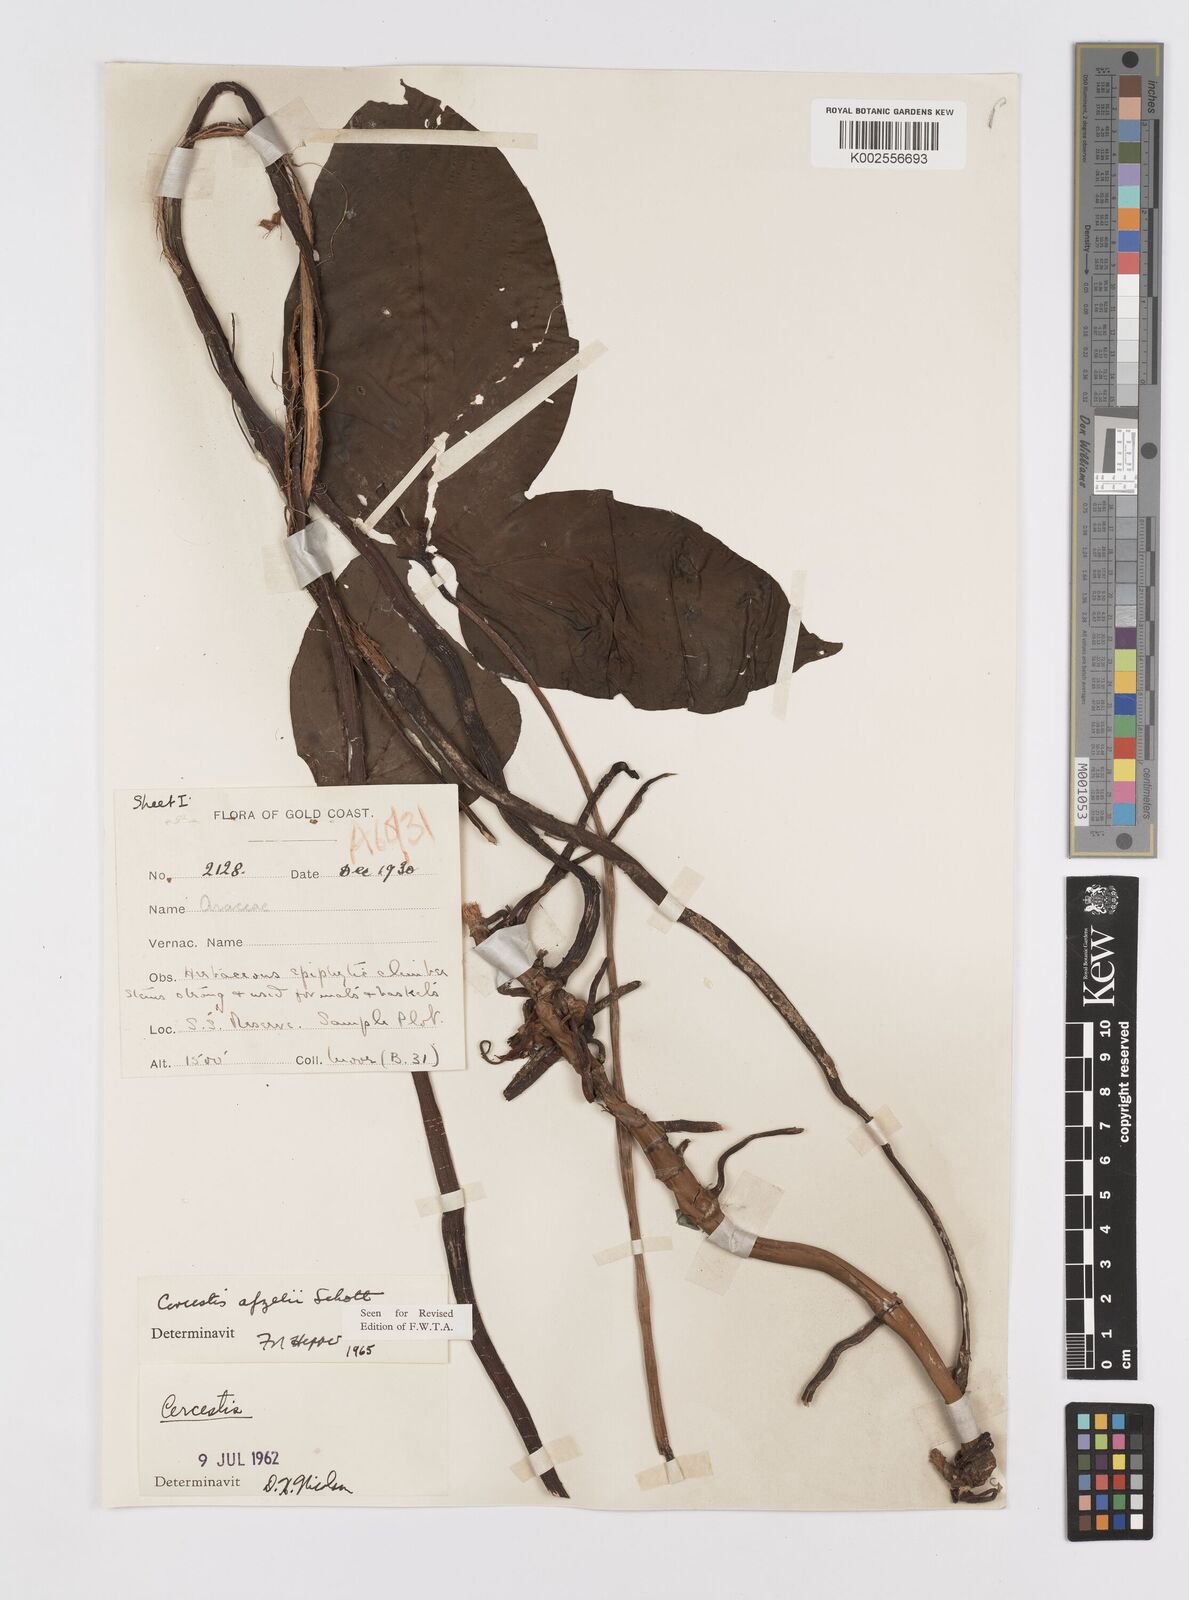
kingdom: Plantae
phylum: Tracheophyta
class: Liliopsida
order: Alismatales
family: Araceae
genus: Cercestis
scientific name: Cercestis afzelii
